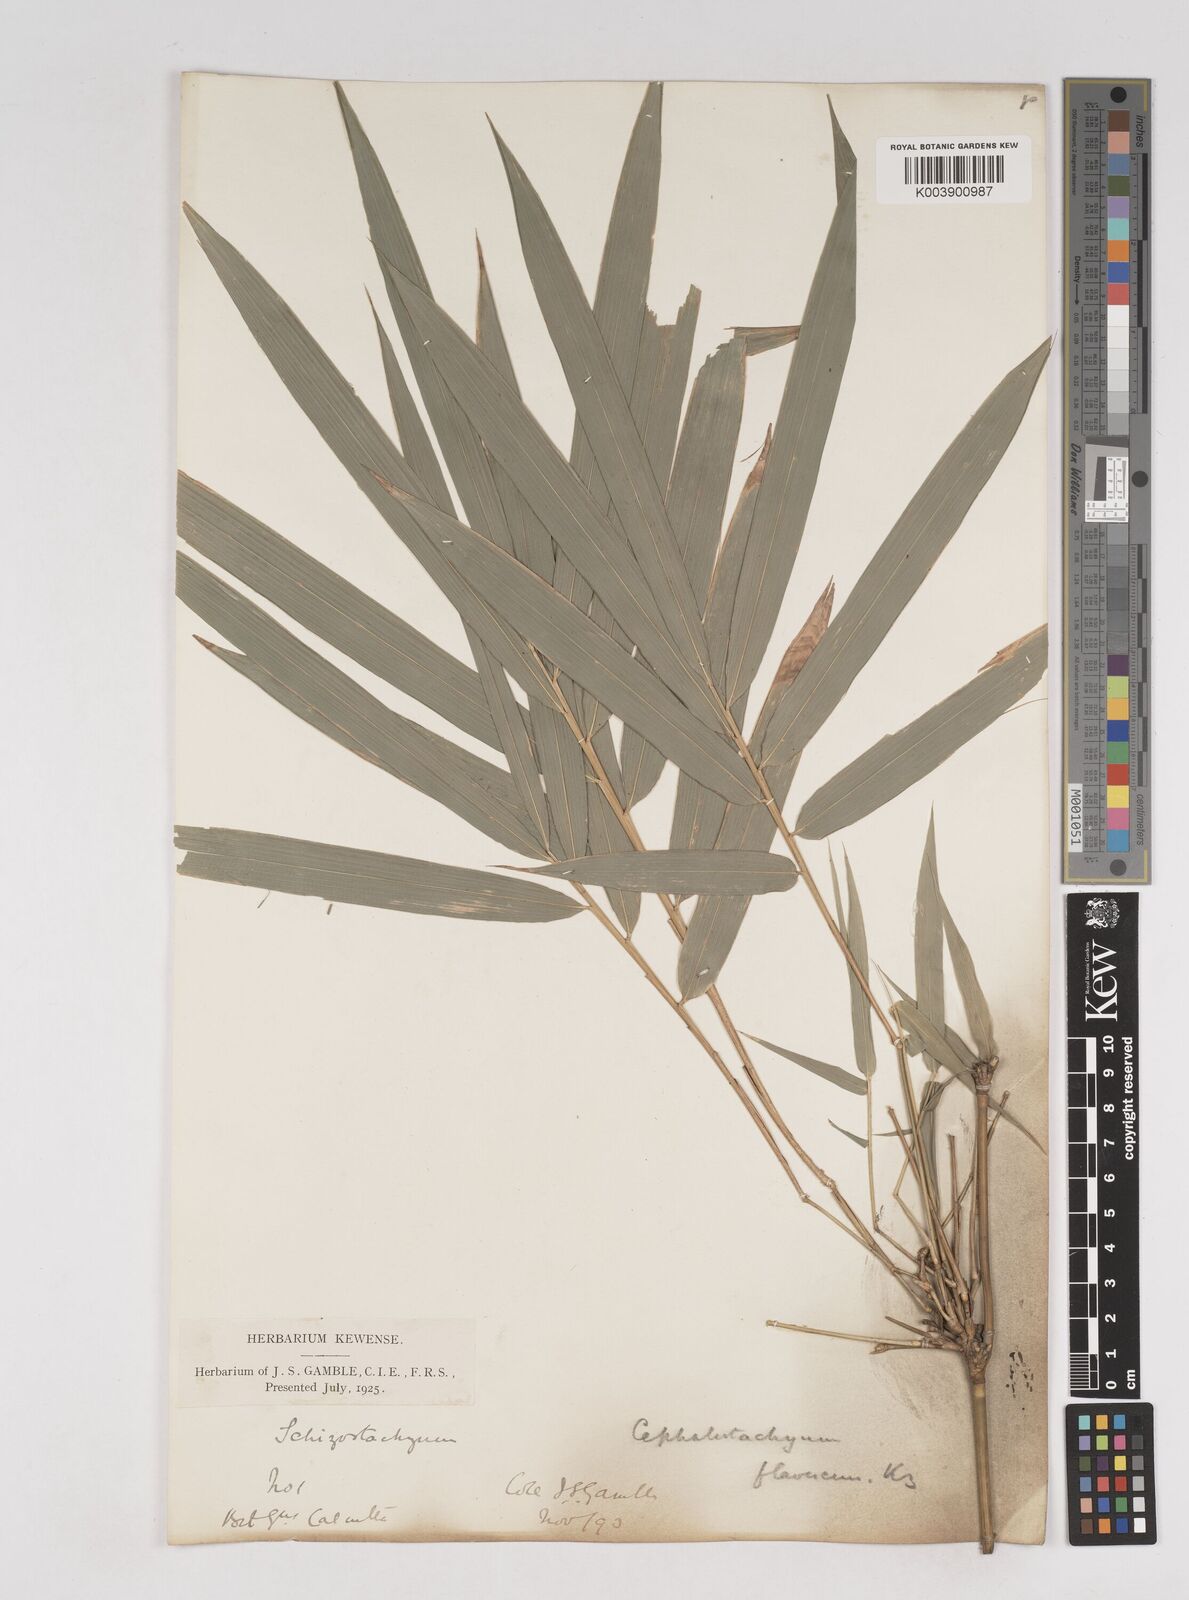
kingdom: Plantae
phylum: Tracheophyta
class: Liliopsida
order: Poales
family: Poaceae
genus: Cephalostachyum
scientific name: Cephalostachyum flavescens
